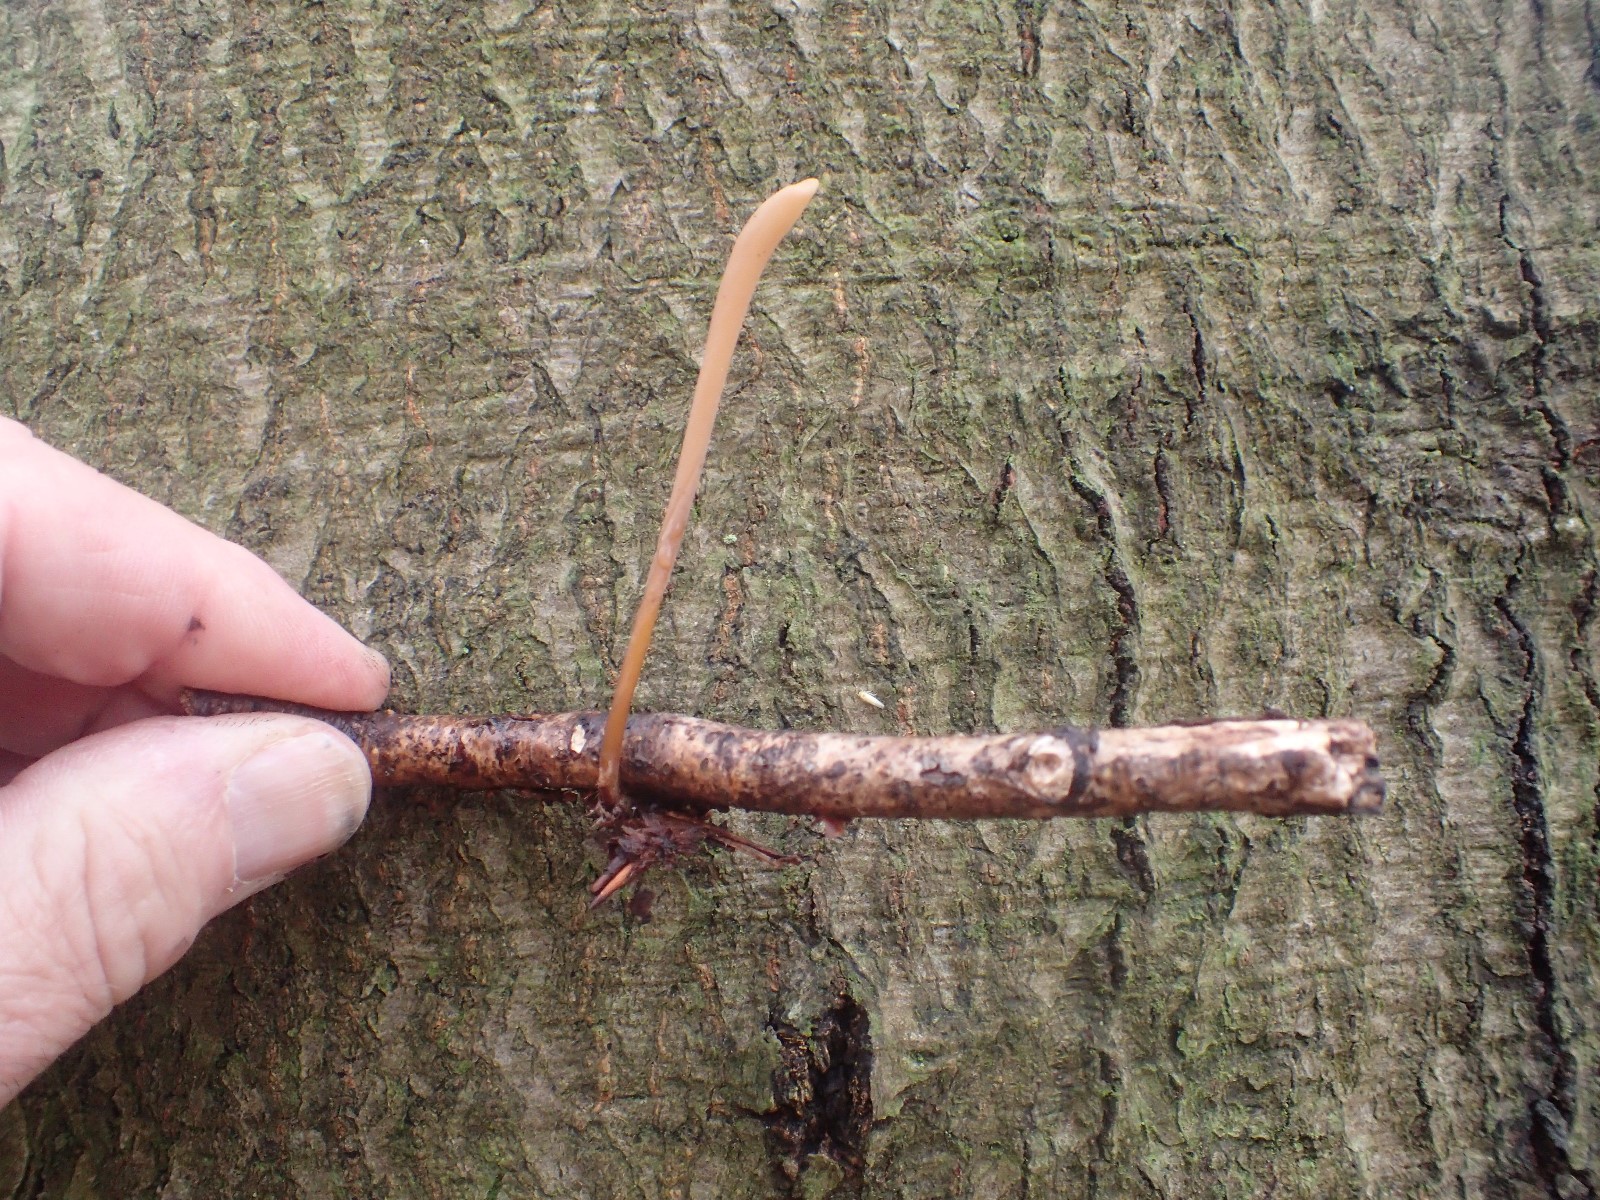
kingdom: Fungi
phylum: Basidiomycota
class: Agaricomycetes
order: Agaricales
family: Typhulaceae
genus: Typhula
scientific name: Typhula fistulosa
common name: pibet rørkølle
